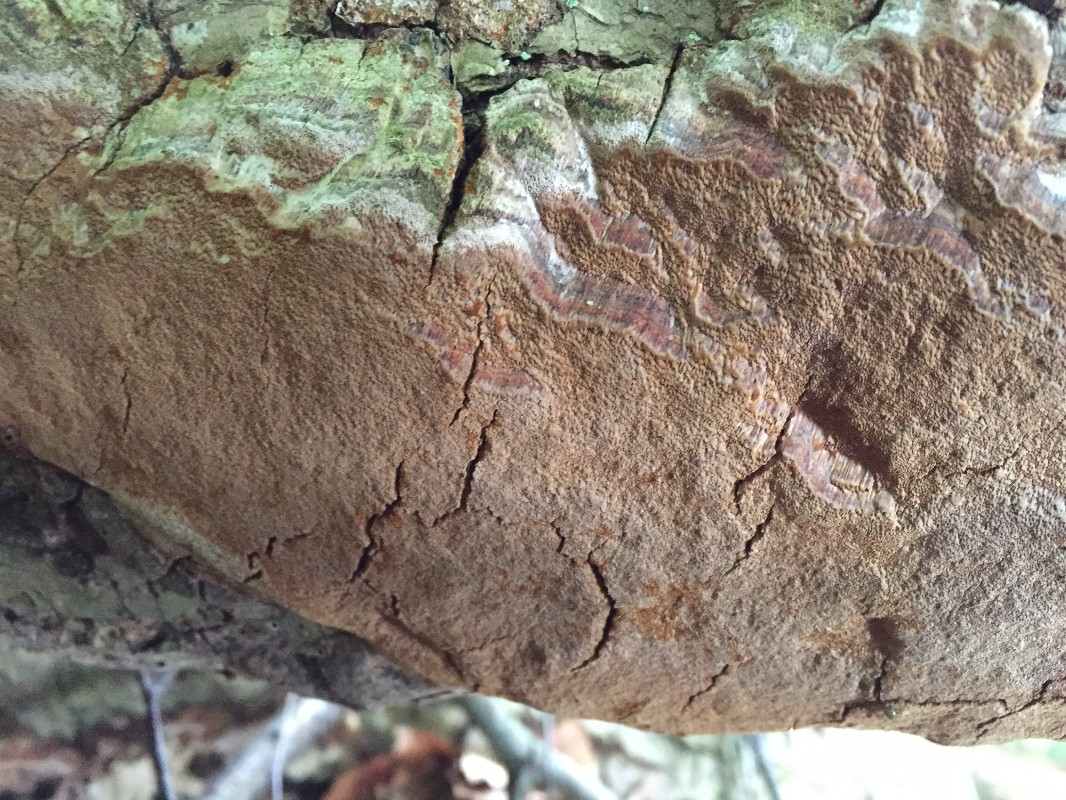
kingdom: Fungi
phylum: Basidiomycota
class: Agaricomycetes
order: Hymenochaetales
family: Hymenochaetaceae
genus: Fuscoporia
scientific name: Fuscoporia ferrea
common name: skorpe-ildporesvamp
